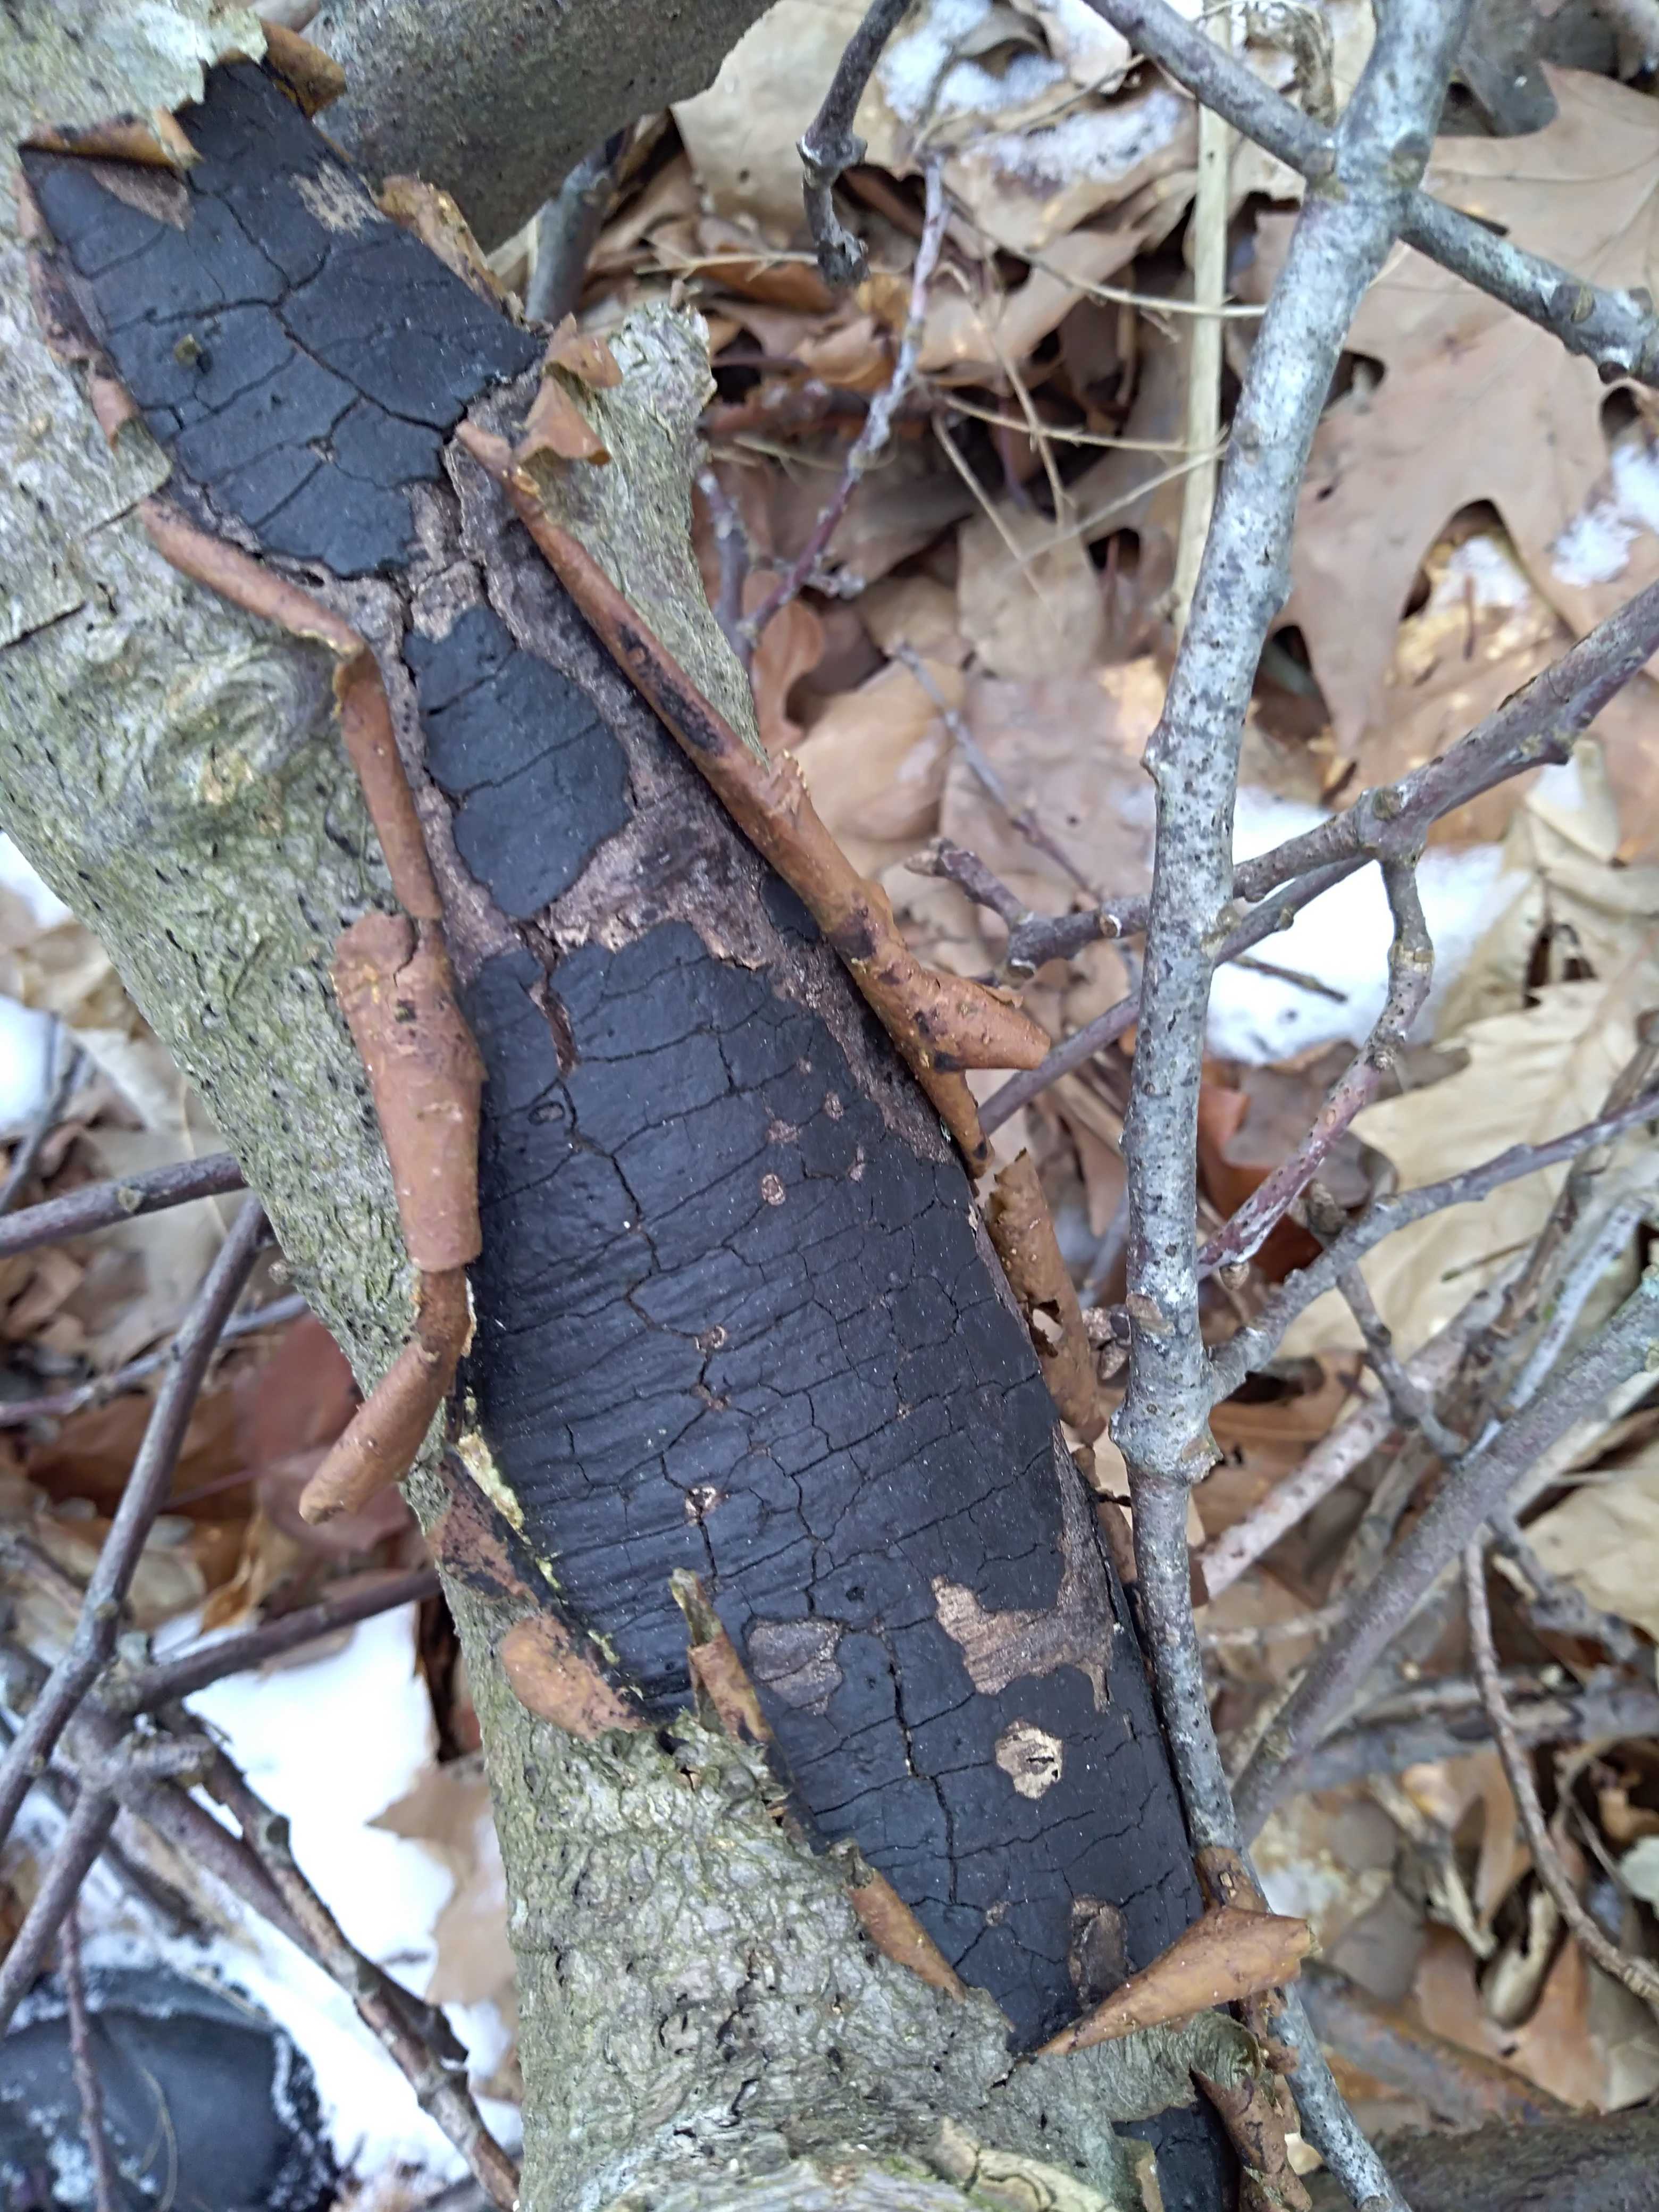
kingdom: Fungi
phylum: Ascomycota
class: Sordariomycetes
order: Xylariales
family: Diatrypaceae
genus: Diatrype
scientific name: Diatrype stigma
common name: udbredt kulskorpe
